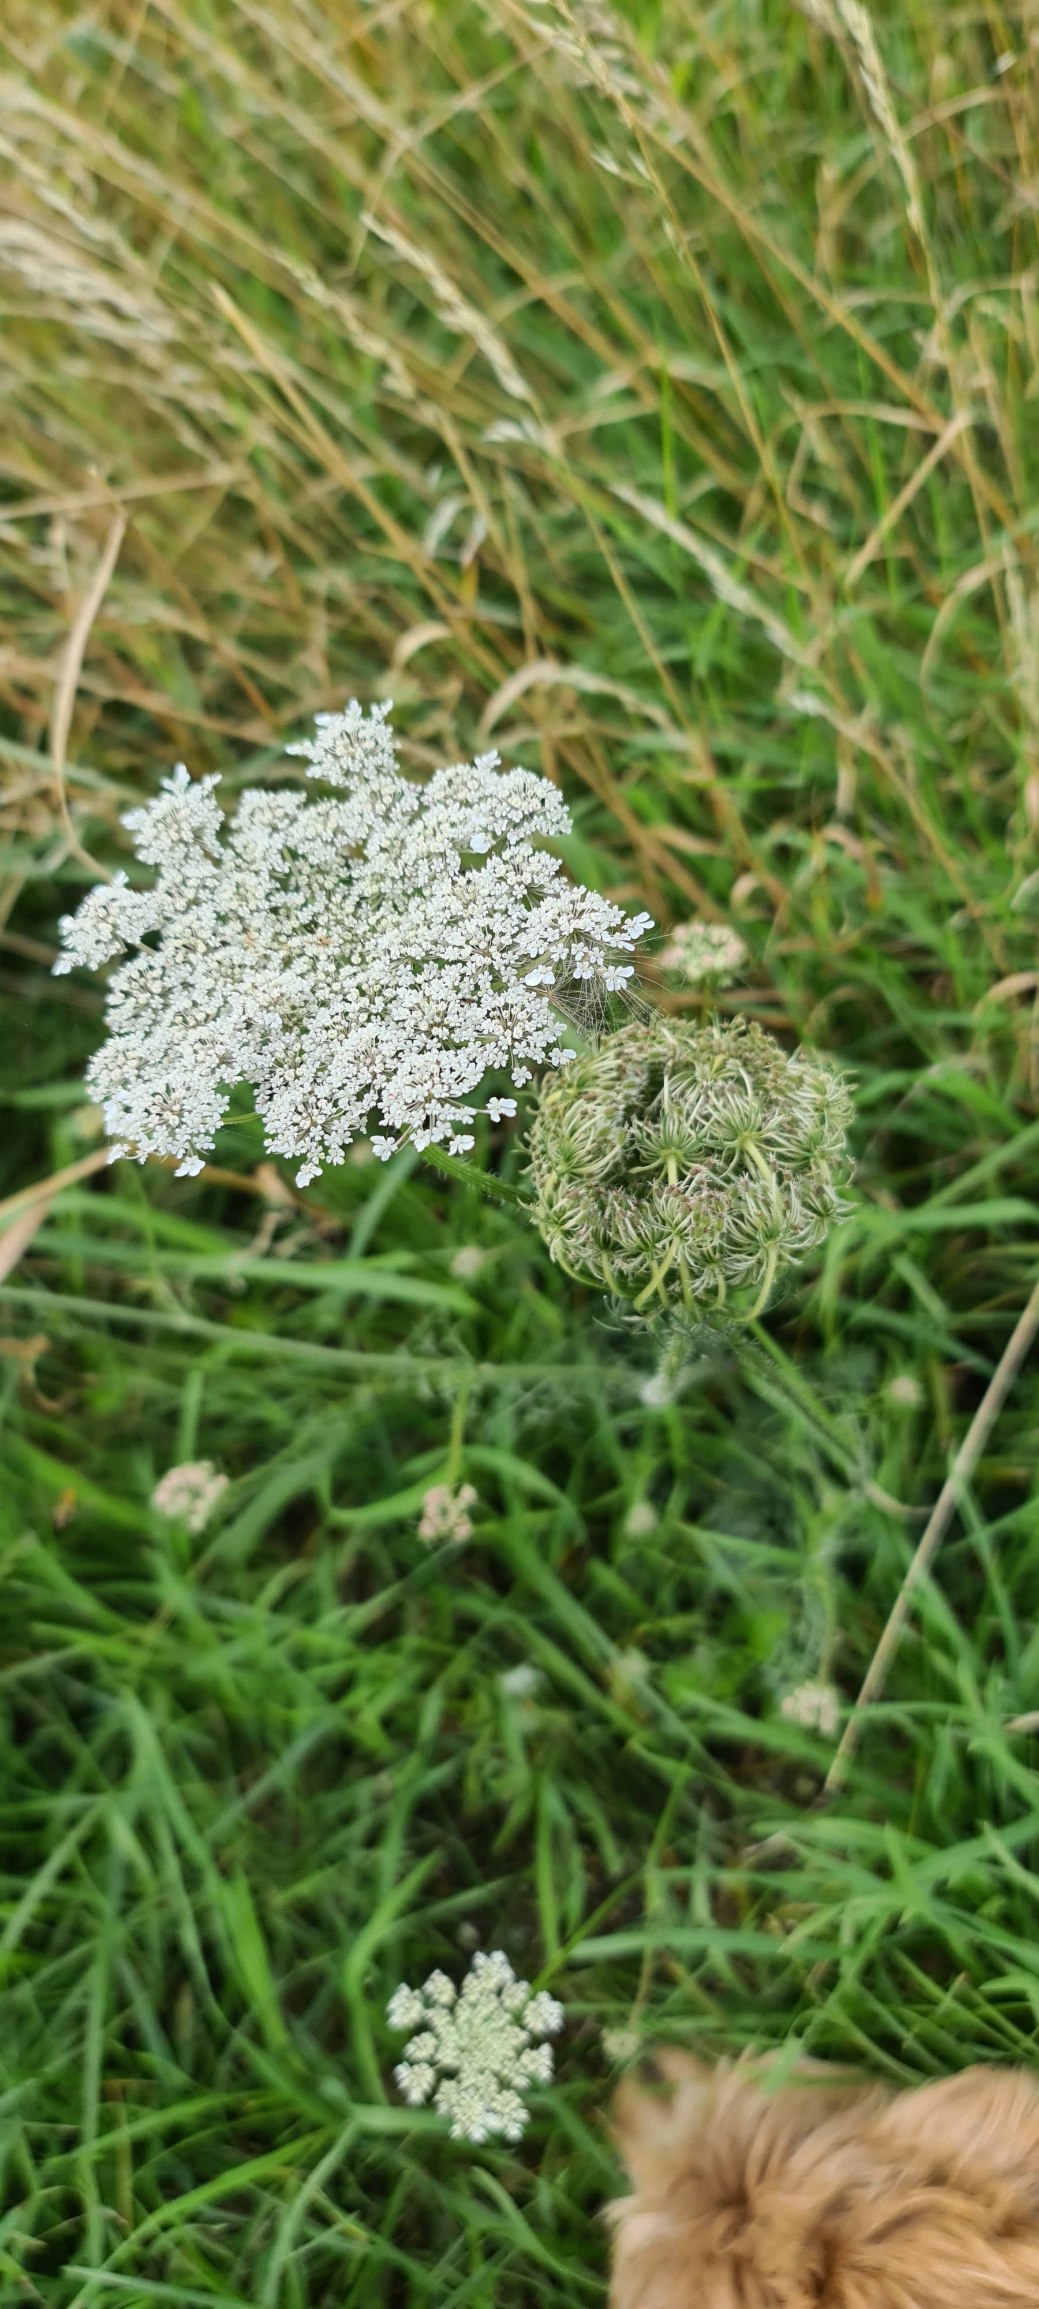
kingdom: Plantae
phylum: Tracheophyta
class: Magnoliopsida
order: Apiales
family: Apiaceae
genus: Daucus
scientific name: Daucus carota
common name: Gulerod
